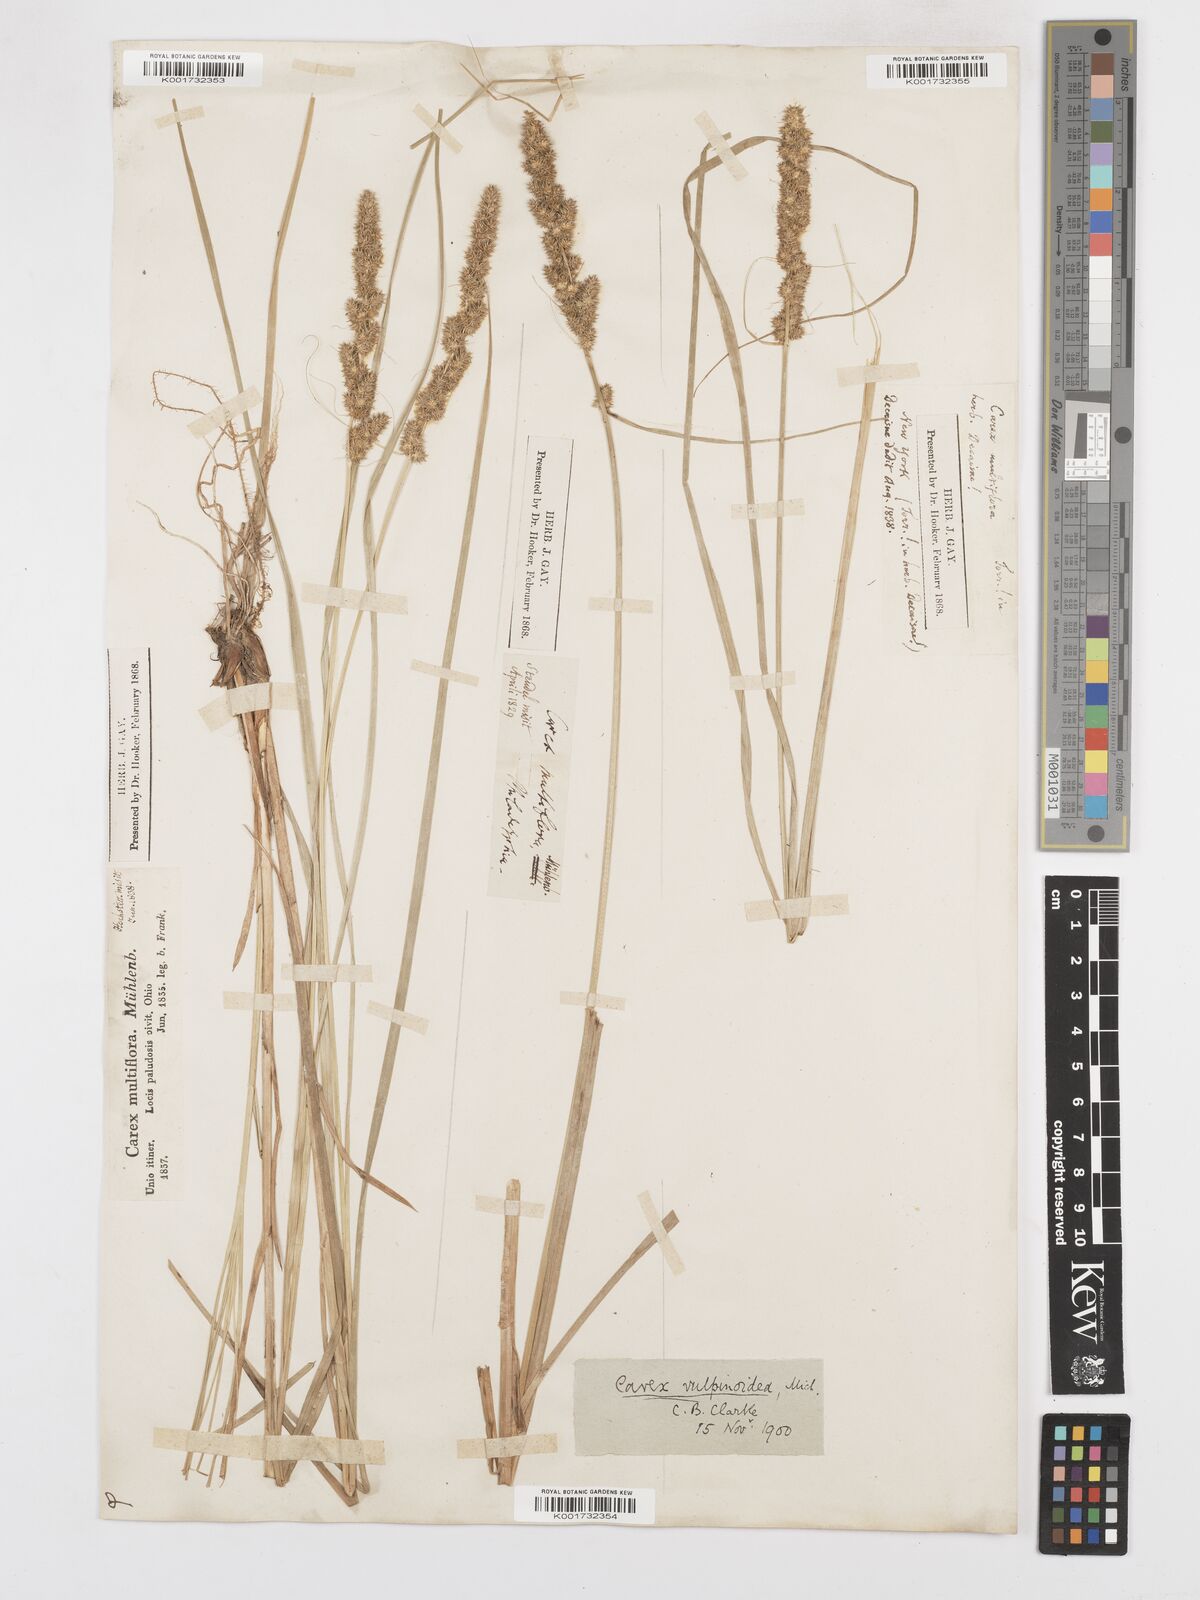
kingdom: Plantae
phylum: Tracheophyta
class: Liliopsida
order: Poales
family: Cyperaceae
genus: Carex
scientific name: Carex vulpinoidea
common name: American fox-sedge
